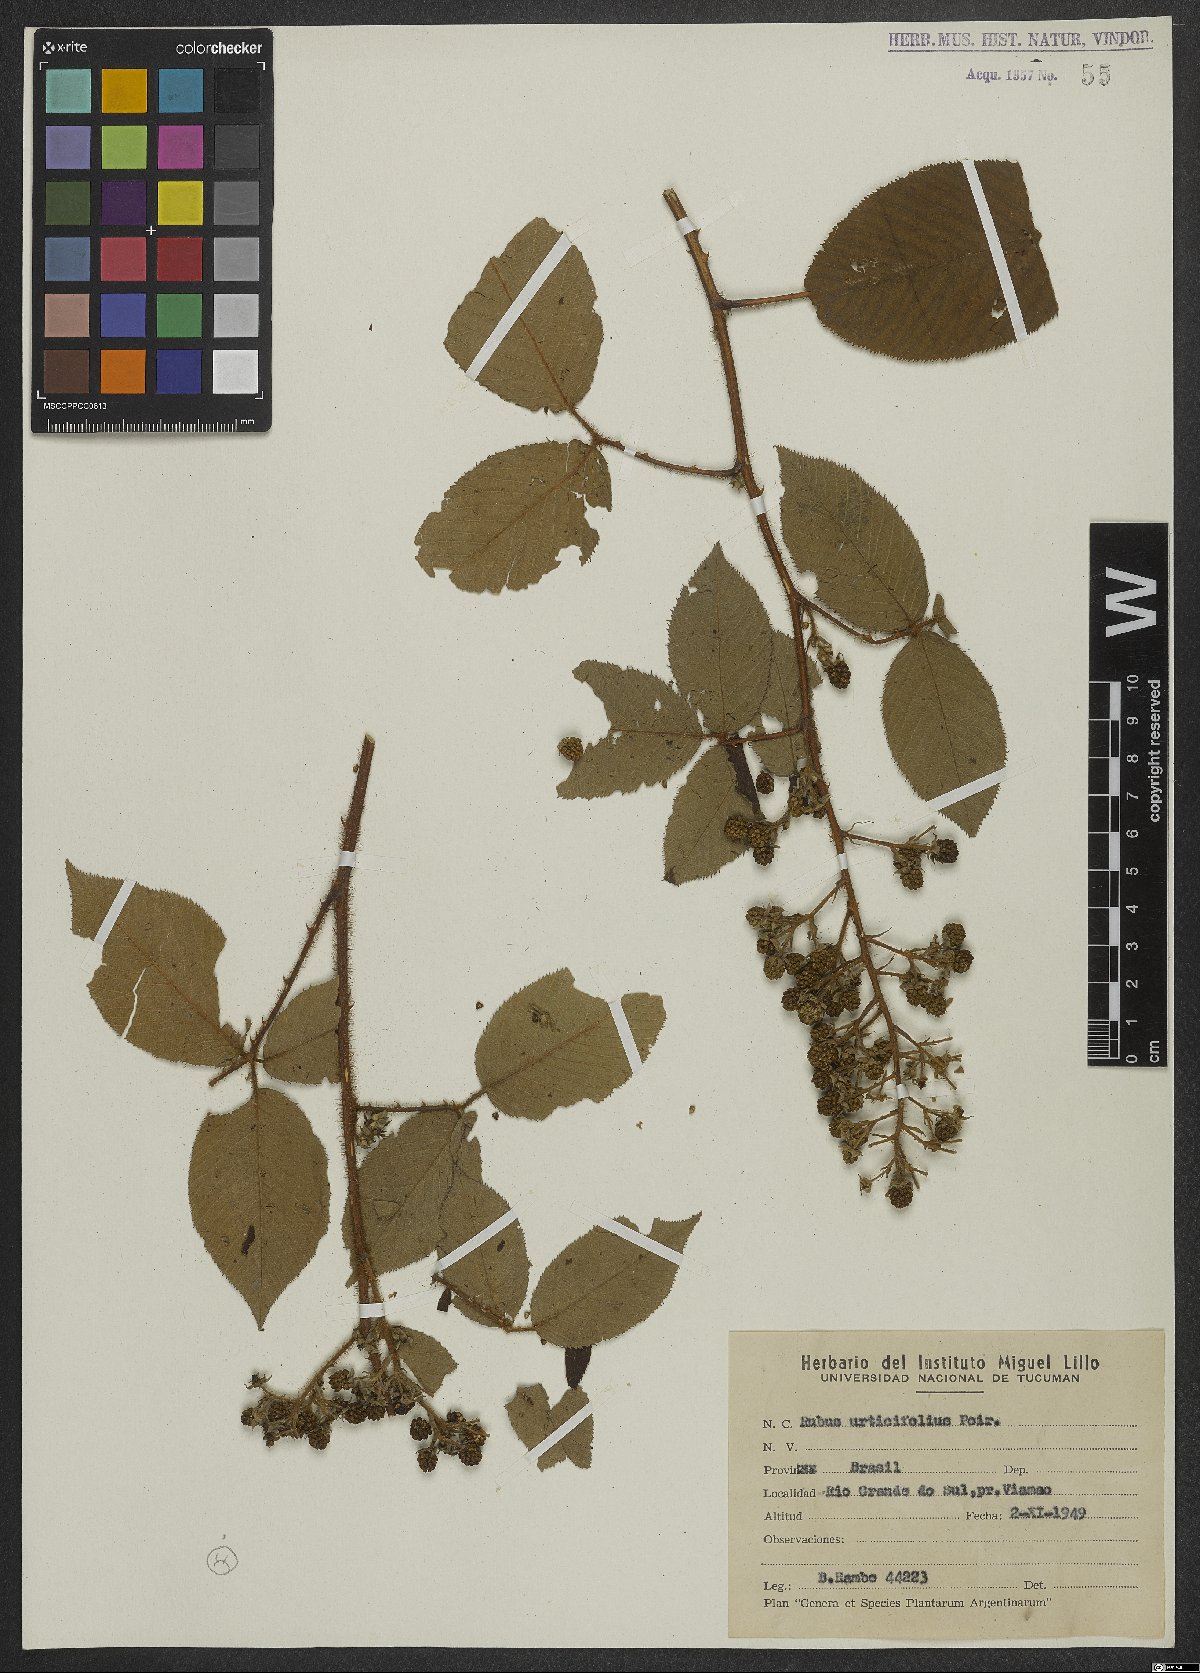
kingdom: Plantae
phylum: Tracheophyta
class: Magnoliopsida
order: Rosales
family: Rosaceae
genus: Rubus
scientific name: Rubus urticifolius
